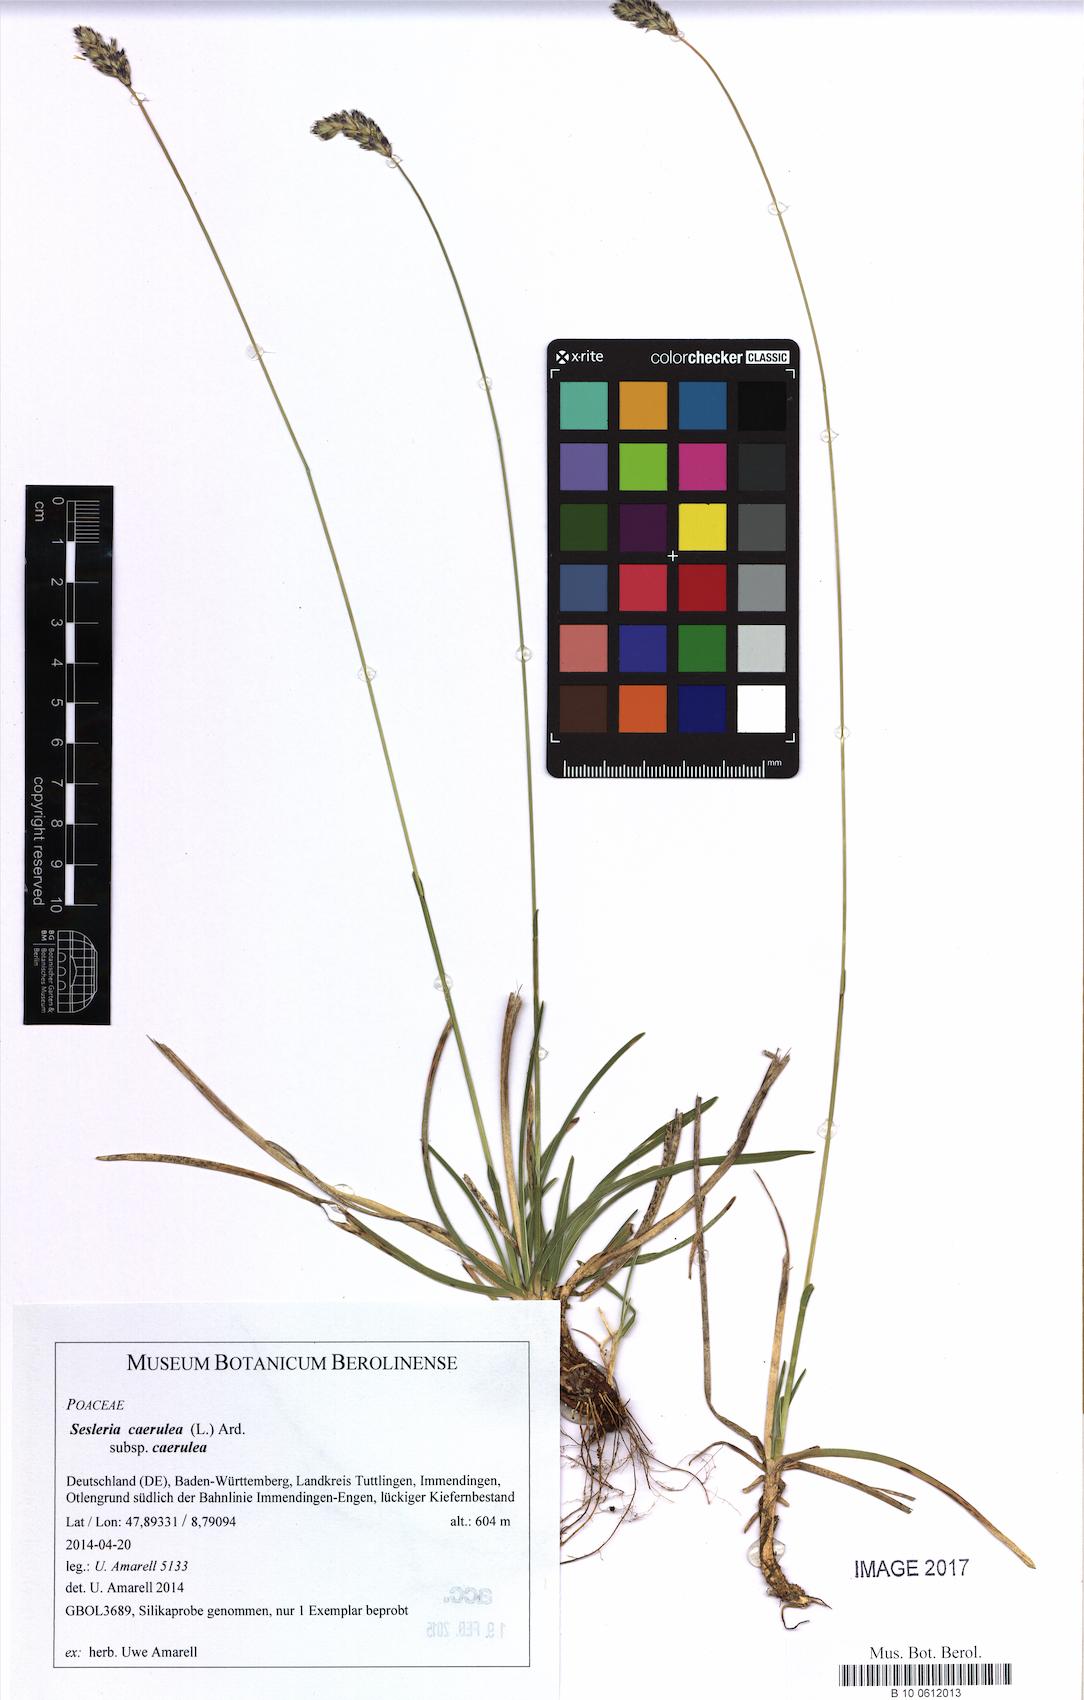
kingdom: Plantae
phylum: Tracheophyta
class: Liliopsida
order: Poales
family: Poaceae
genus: Sesleria
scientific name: Sesleria caerulea
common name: Blue moor-grass
